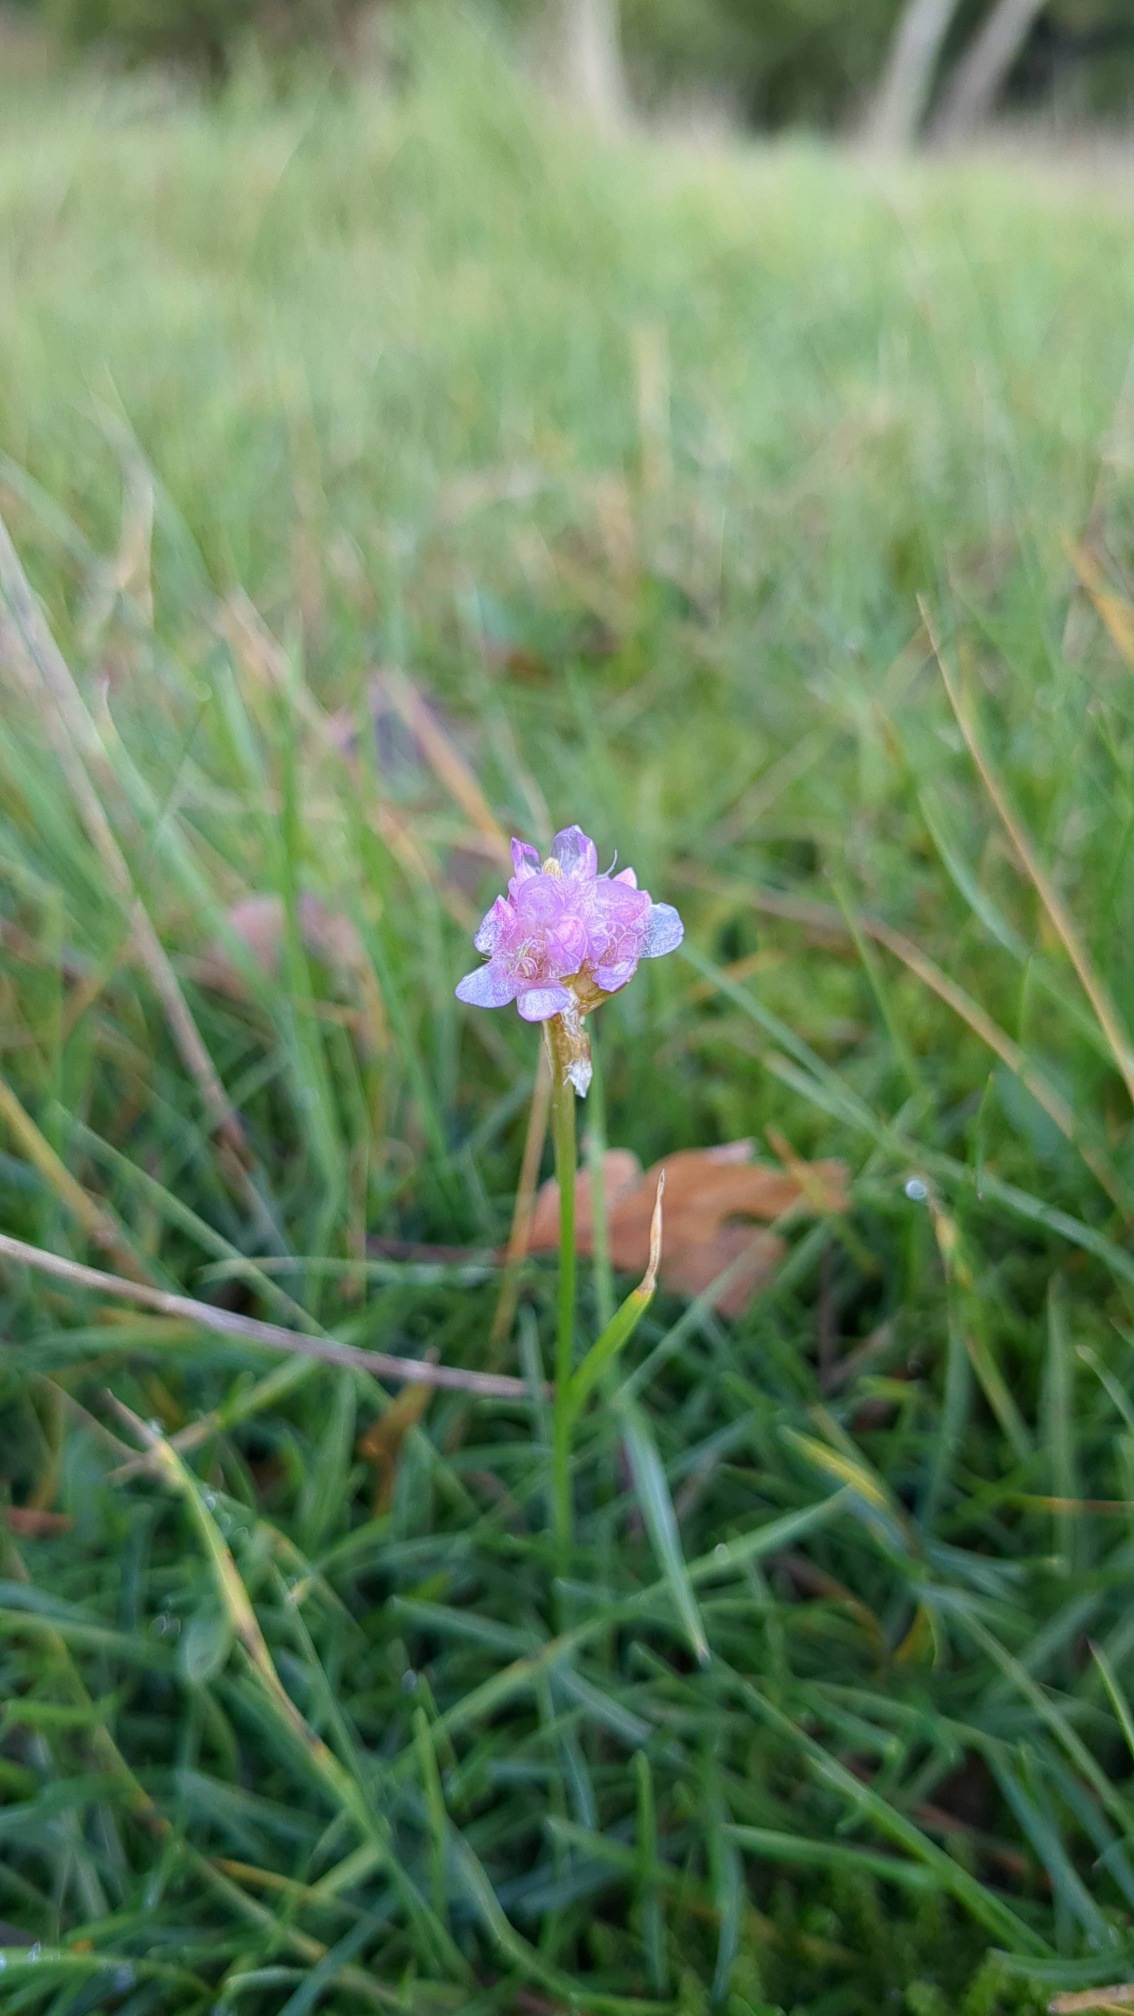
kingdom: Plantae
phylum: Tracheophyta
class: Magnoliopsida
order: Caryophyllales
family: Plumbaginaceae
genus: Armeria
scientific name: Armeria maritima
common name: Engelskgræs
